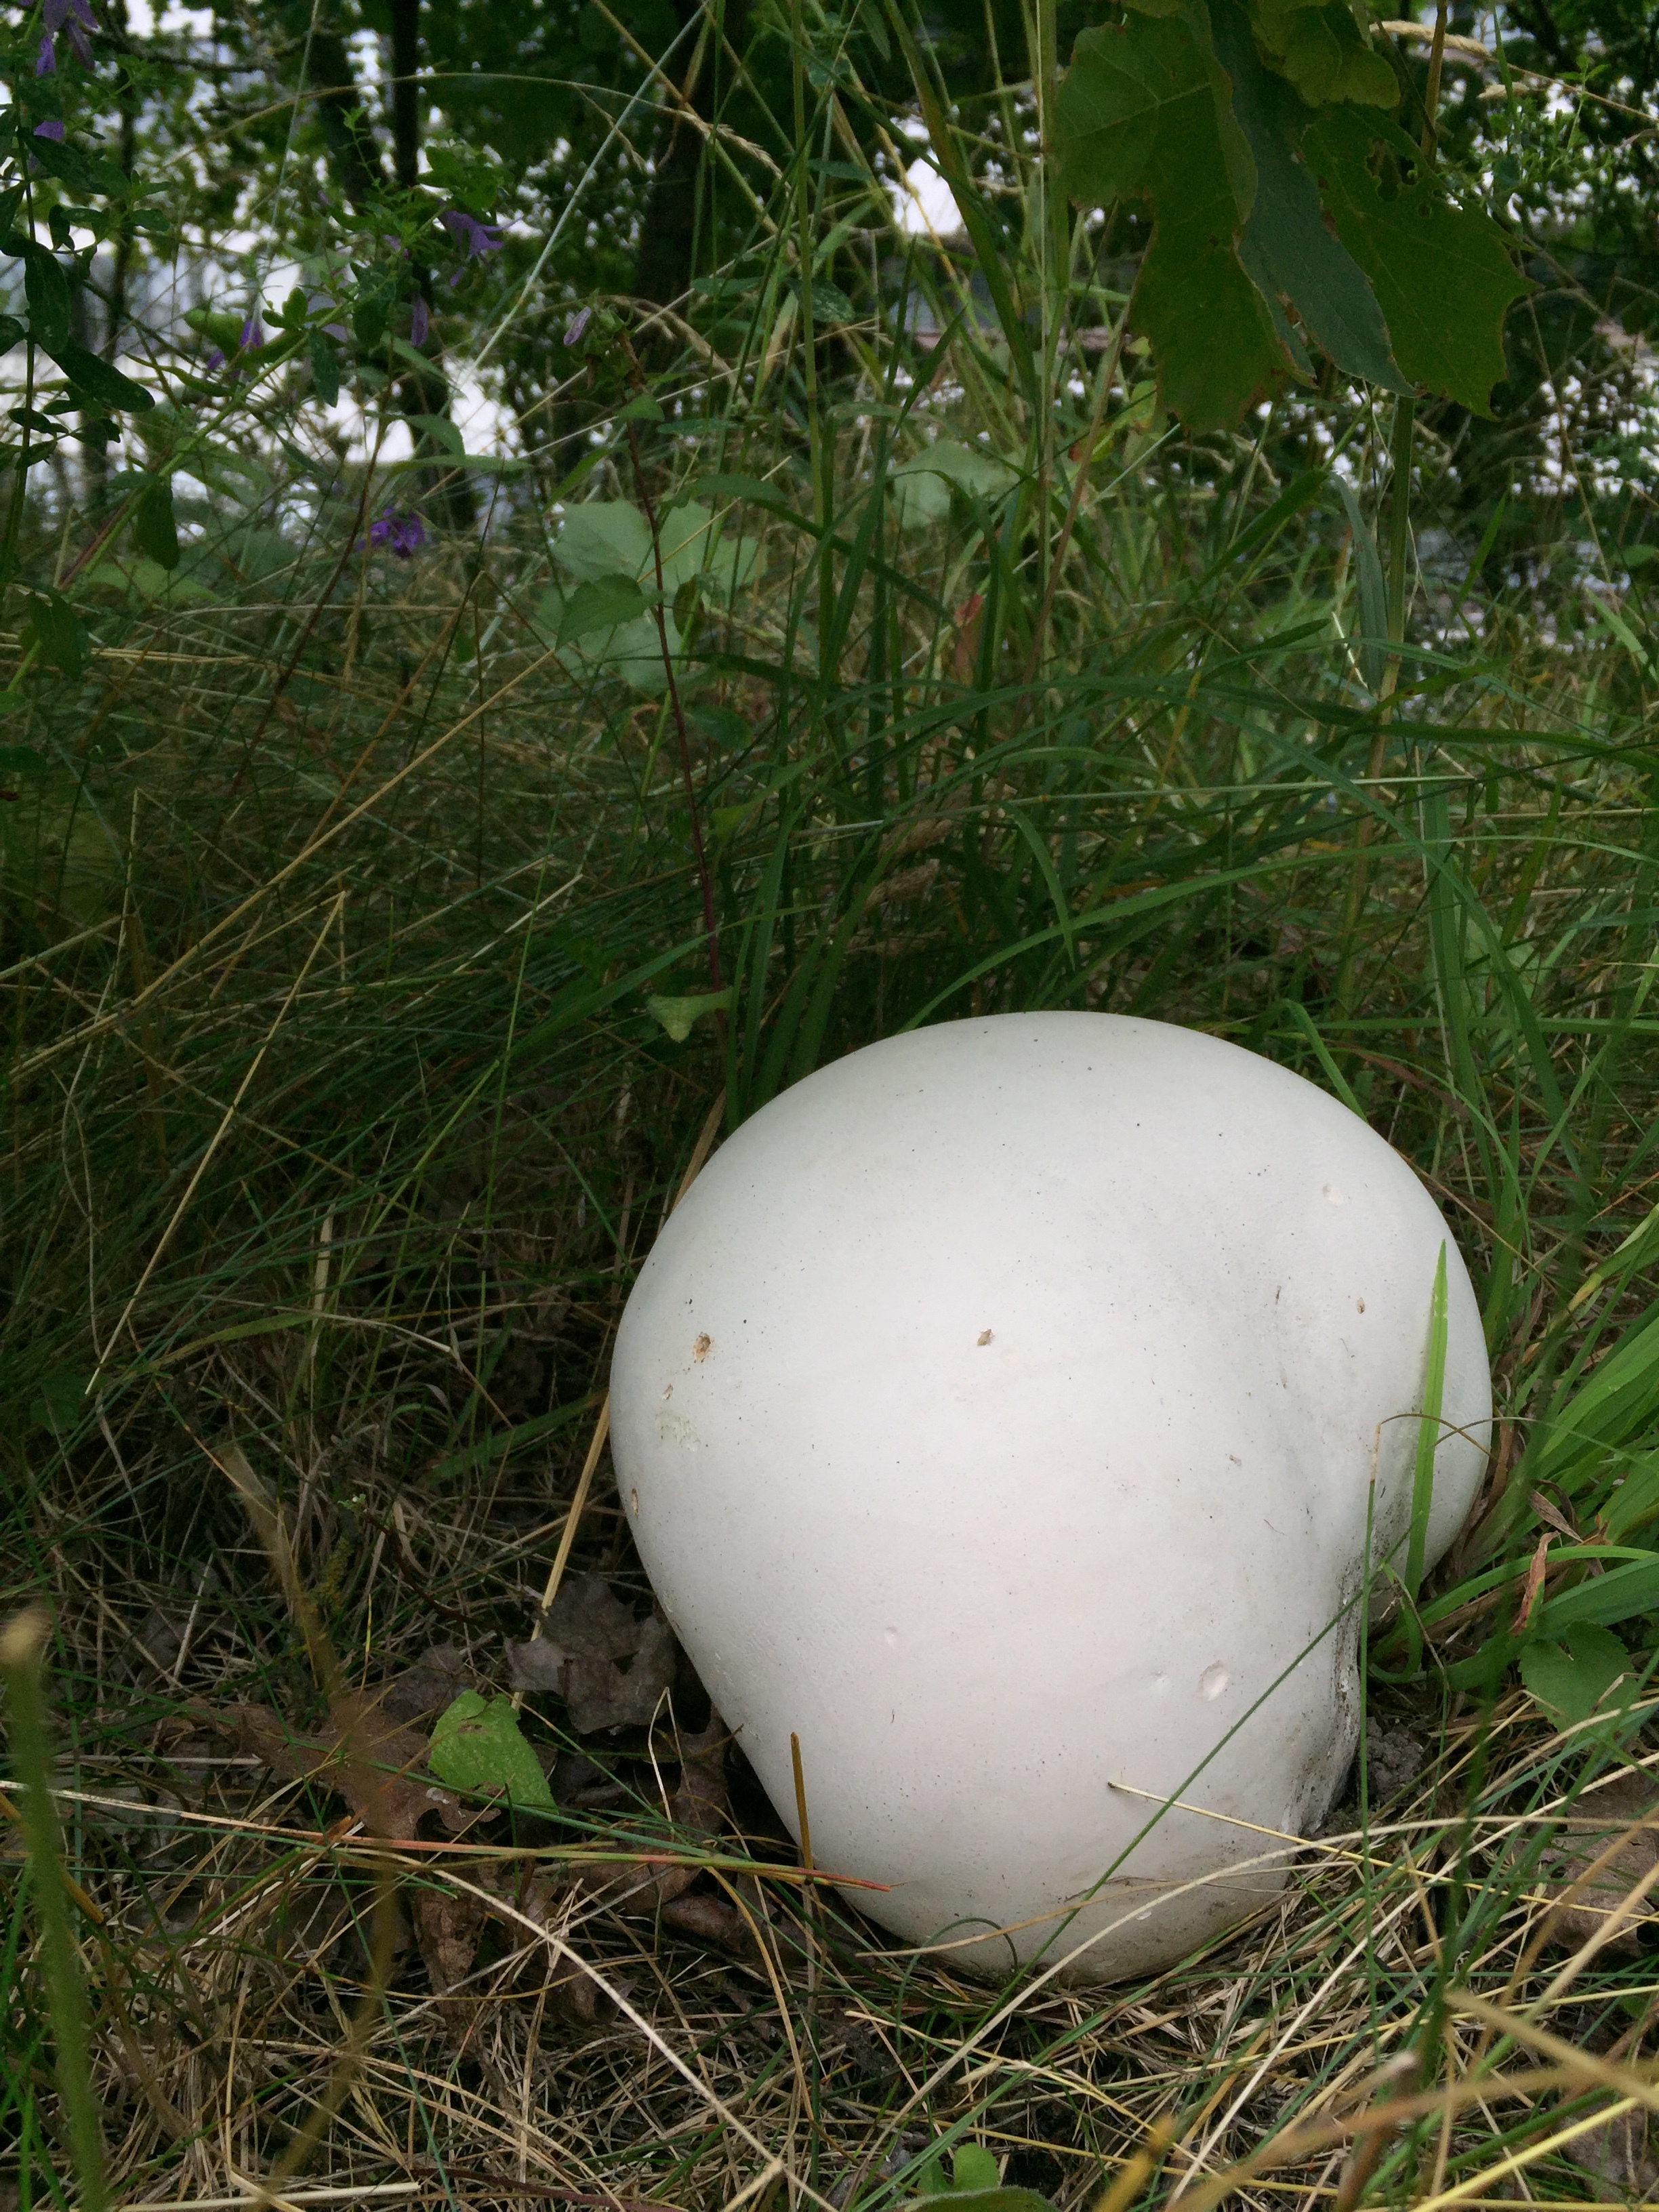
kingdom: Fungi
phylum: Basidiomycota
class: Agaricomycetes
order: Agaricales
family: Lycoperdaceae
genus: Calvatia
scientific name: Calvatia gigantea
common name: Giant puffball
